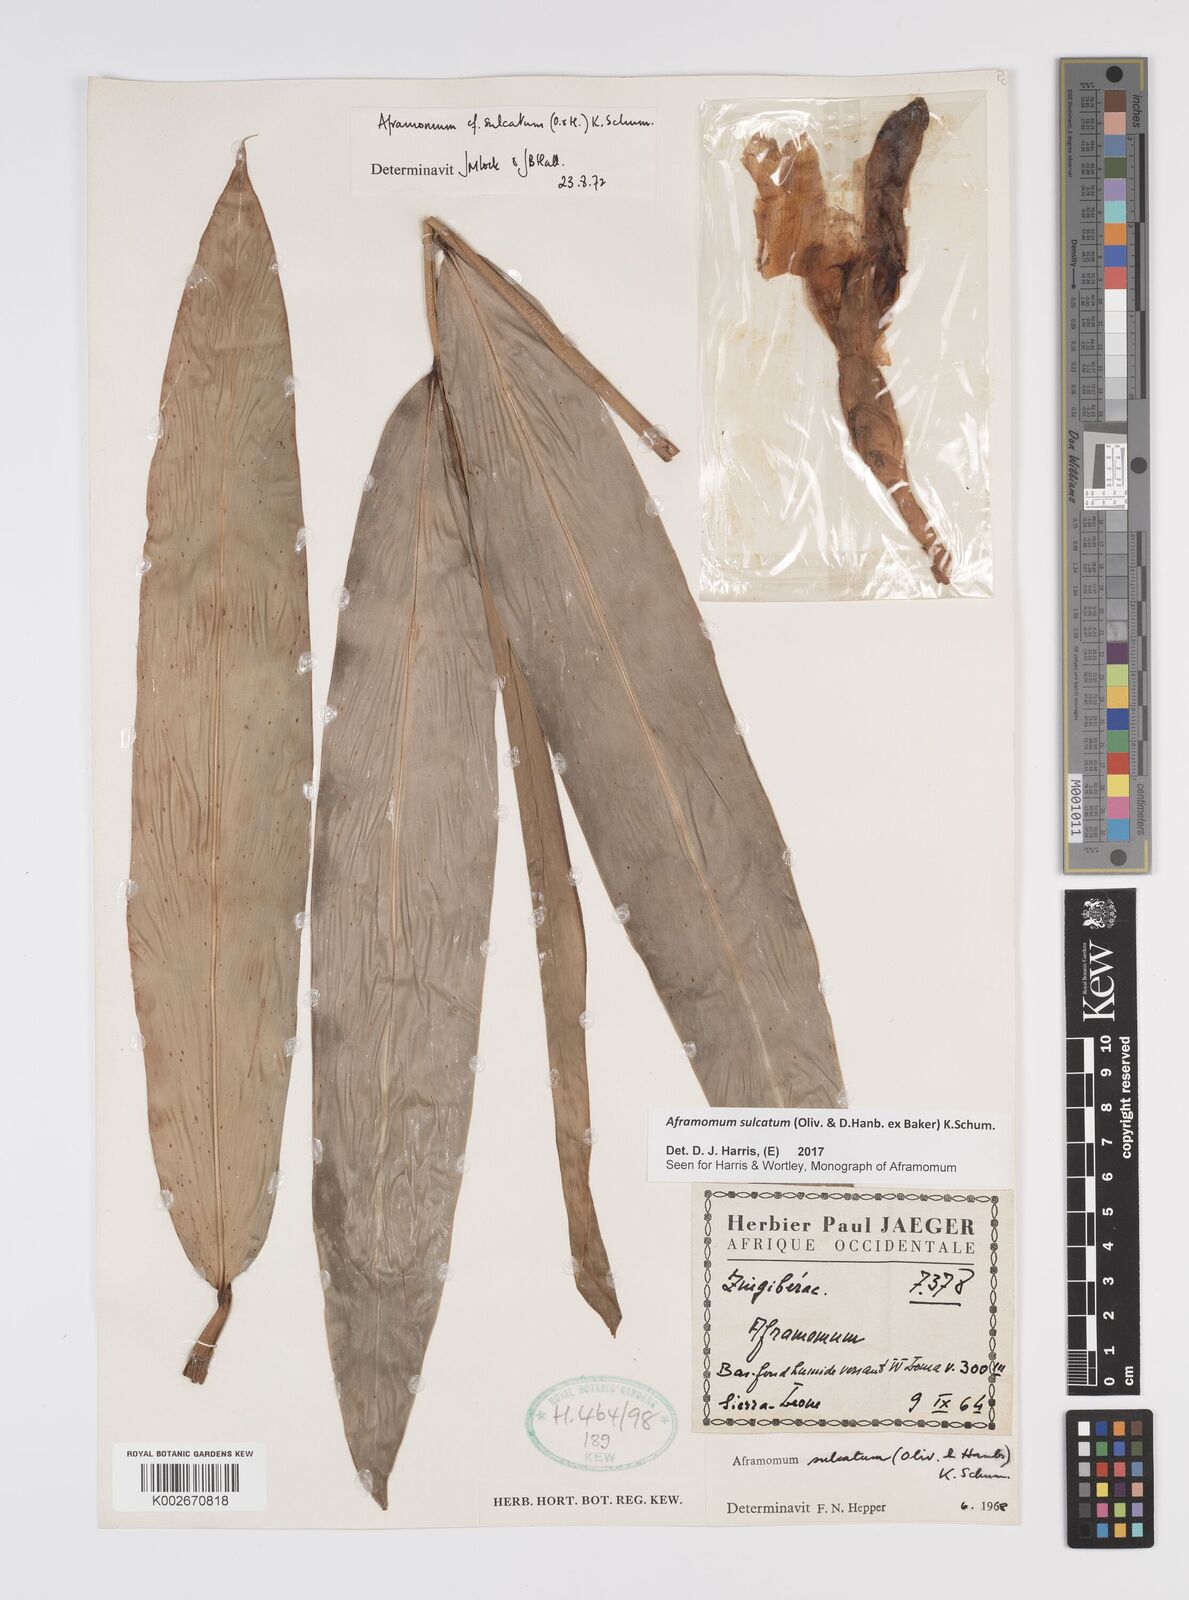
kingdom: Plantae
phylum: Tracheophyta
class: Liliopsida
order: Zingiberales
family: Zingiberaceae
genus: Aframomum
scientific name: Aframomum sulcatum
